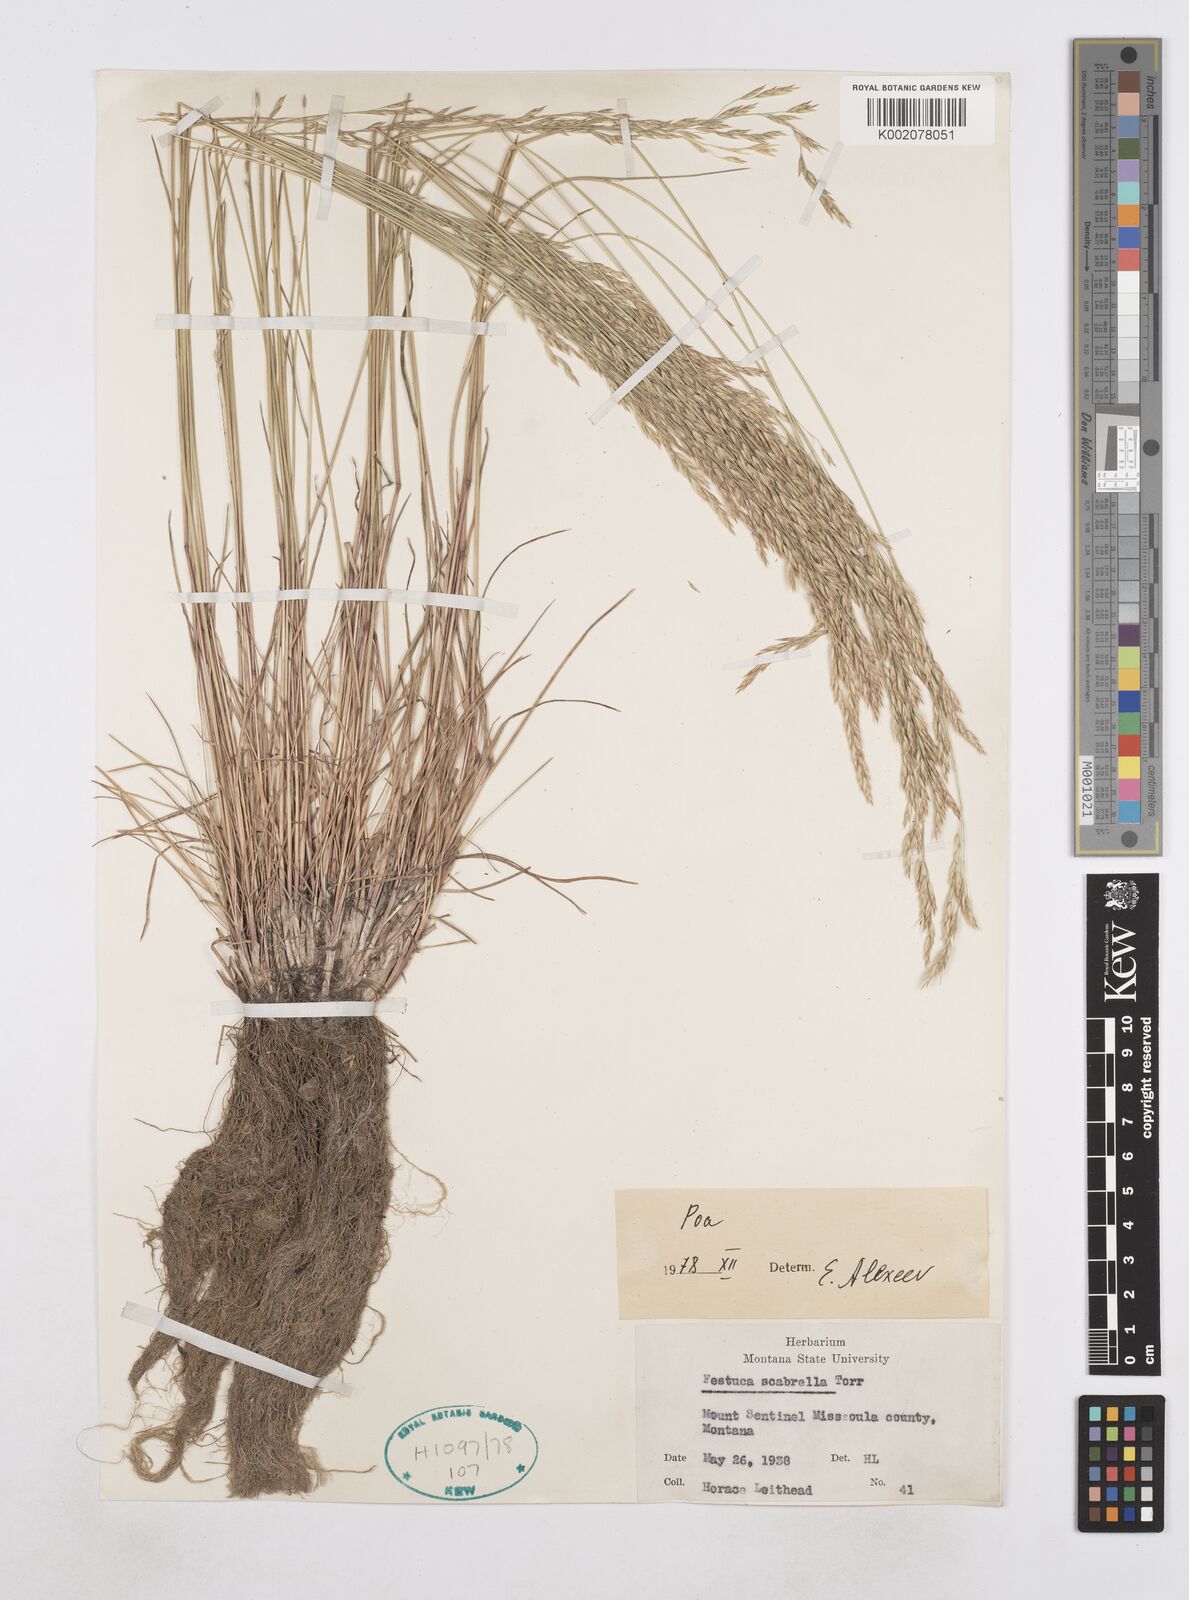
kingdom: Plantae
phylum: Tracheophyta
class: Liliopsida
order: Poales
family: Poaceae
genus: Poa
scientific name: Poa
